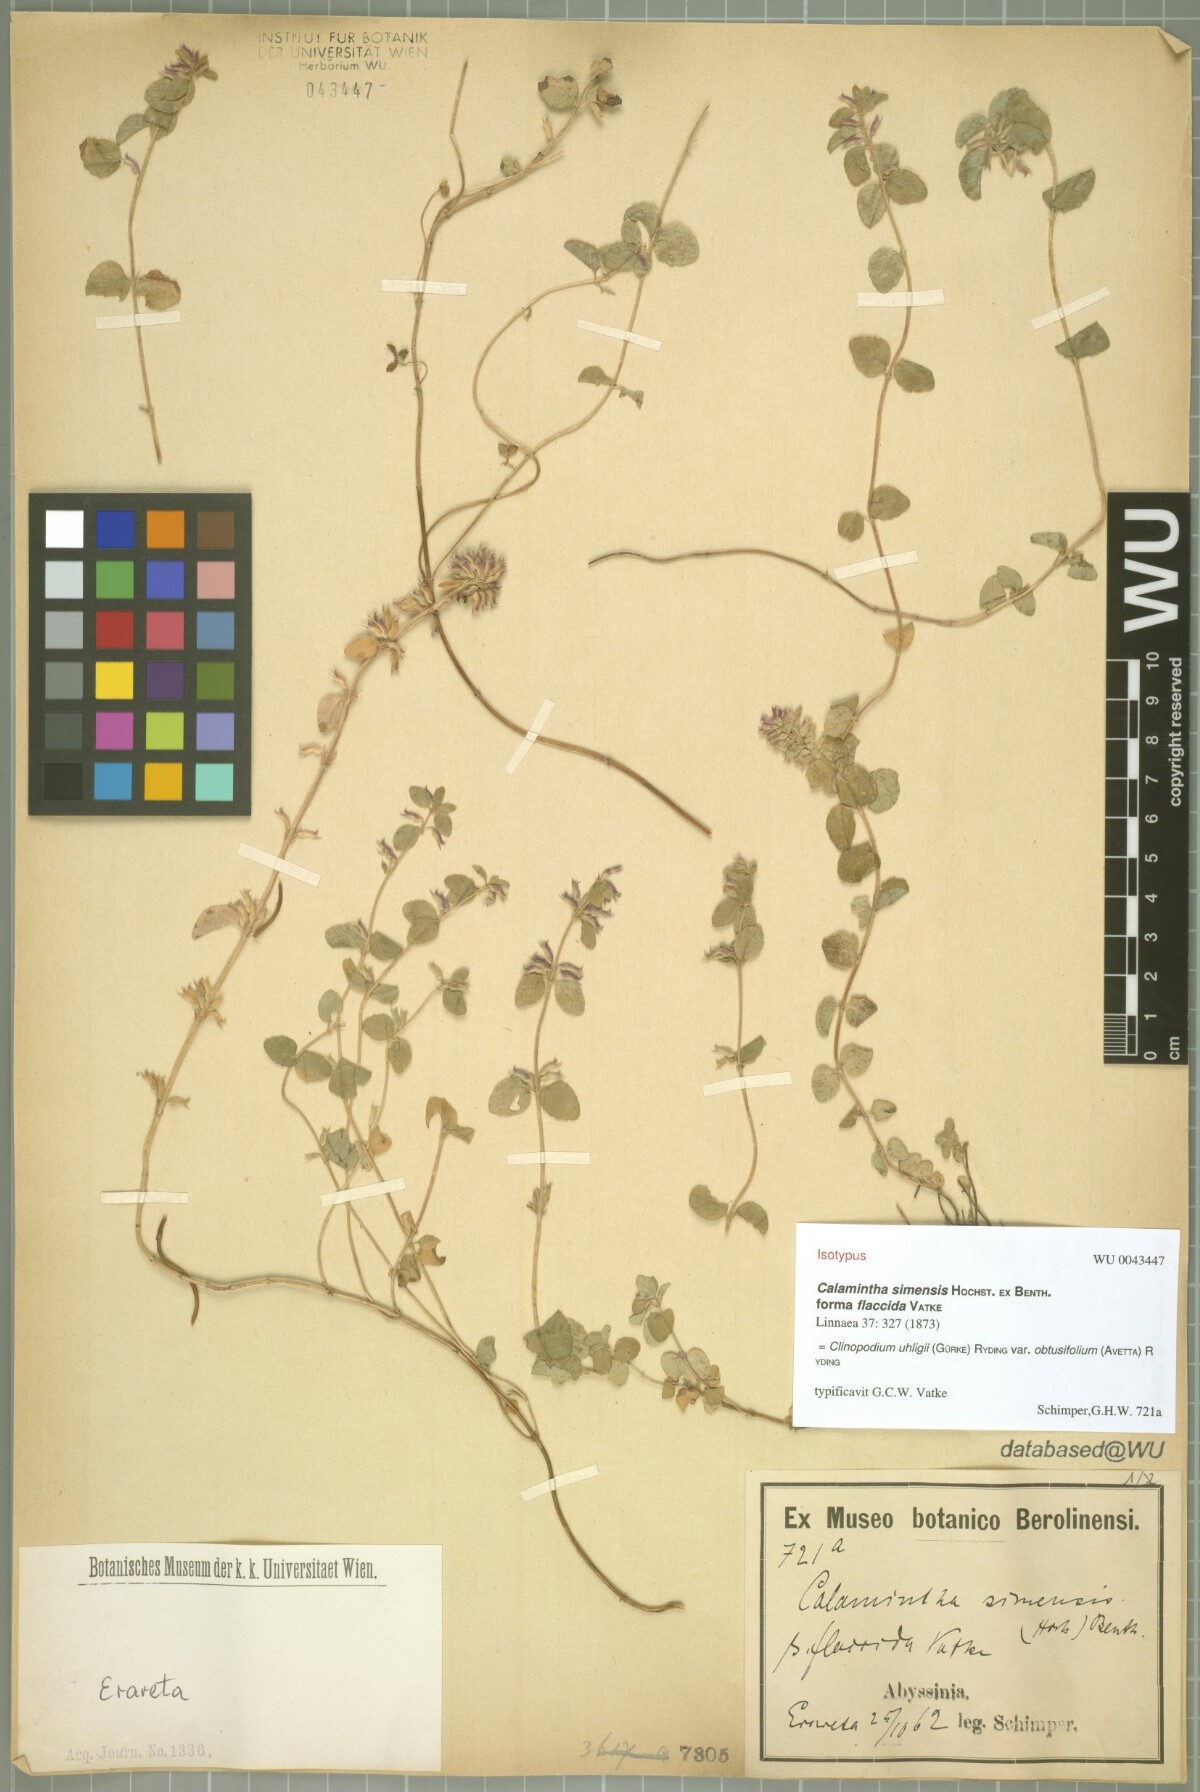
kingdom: Plantae
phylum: Tracheophyta
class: Magnoliopsida
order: Lamiales
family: Lamiaceae
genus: Clinopodium
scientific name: Clinopodium uhligii
